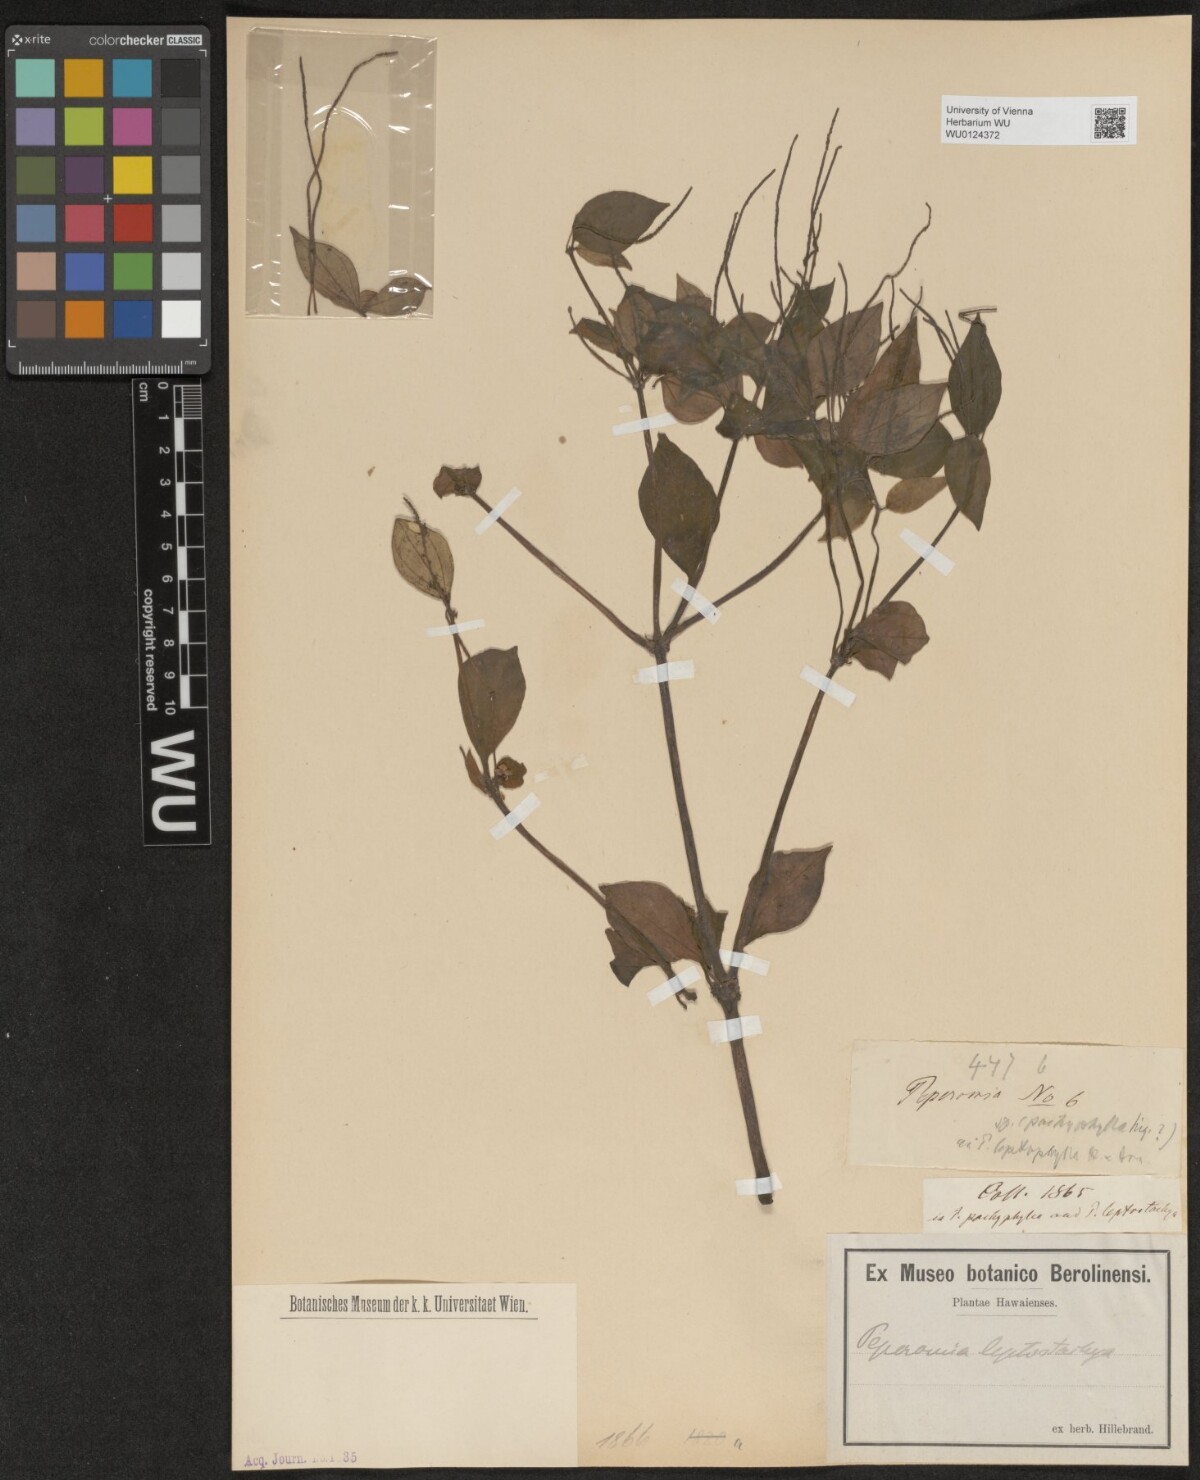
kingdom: Plantae
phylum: Tracheophyta
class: Magnoliopsida
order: Piperales
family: Piperaceae
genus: Peperomia
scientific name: Peperomia leptostachya
